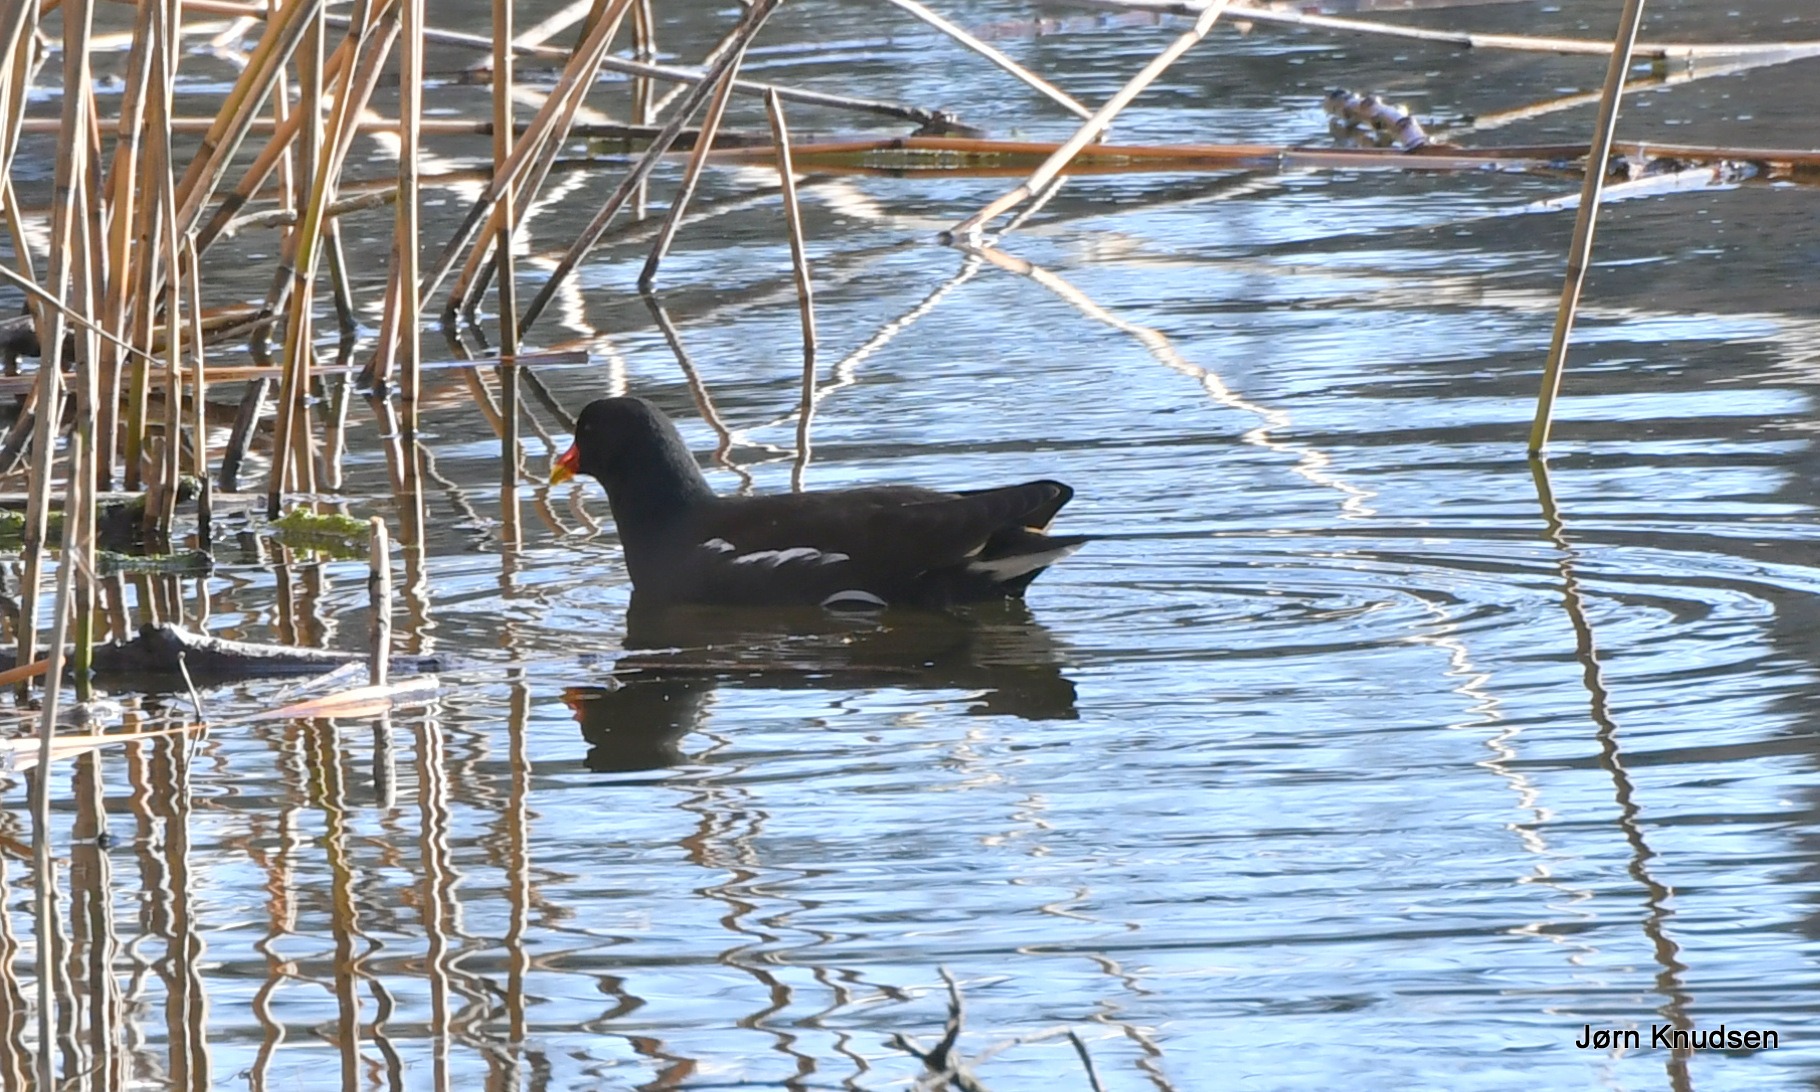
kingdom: Animalia
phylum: Chordata
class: Aves
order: Gruiformes
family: Rallidae
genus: Gallinula
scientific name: Gallinula chloropus
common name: Grønbenet rørhøne
